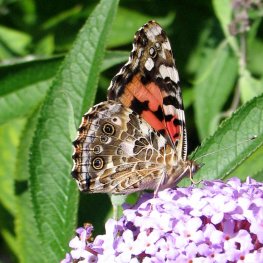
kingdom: Animalia
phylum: Arthropoda
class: Insecta
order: Lepidoptera
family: Nymphalidae
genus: Vanessa
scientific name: Vanessa cardui
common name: Painted Lady
